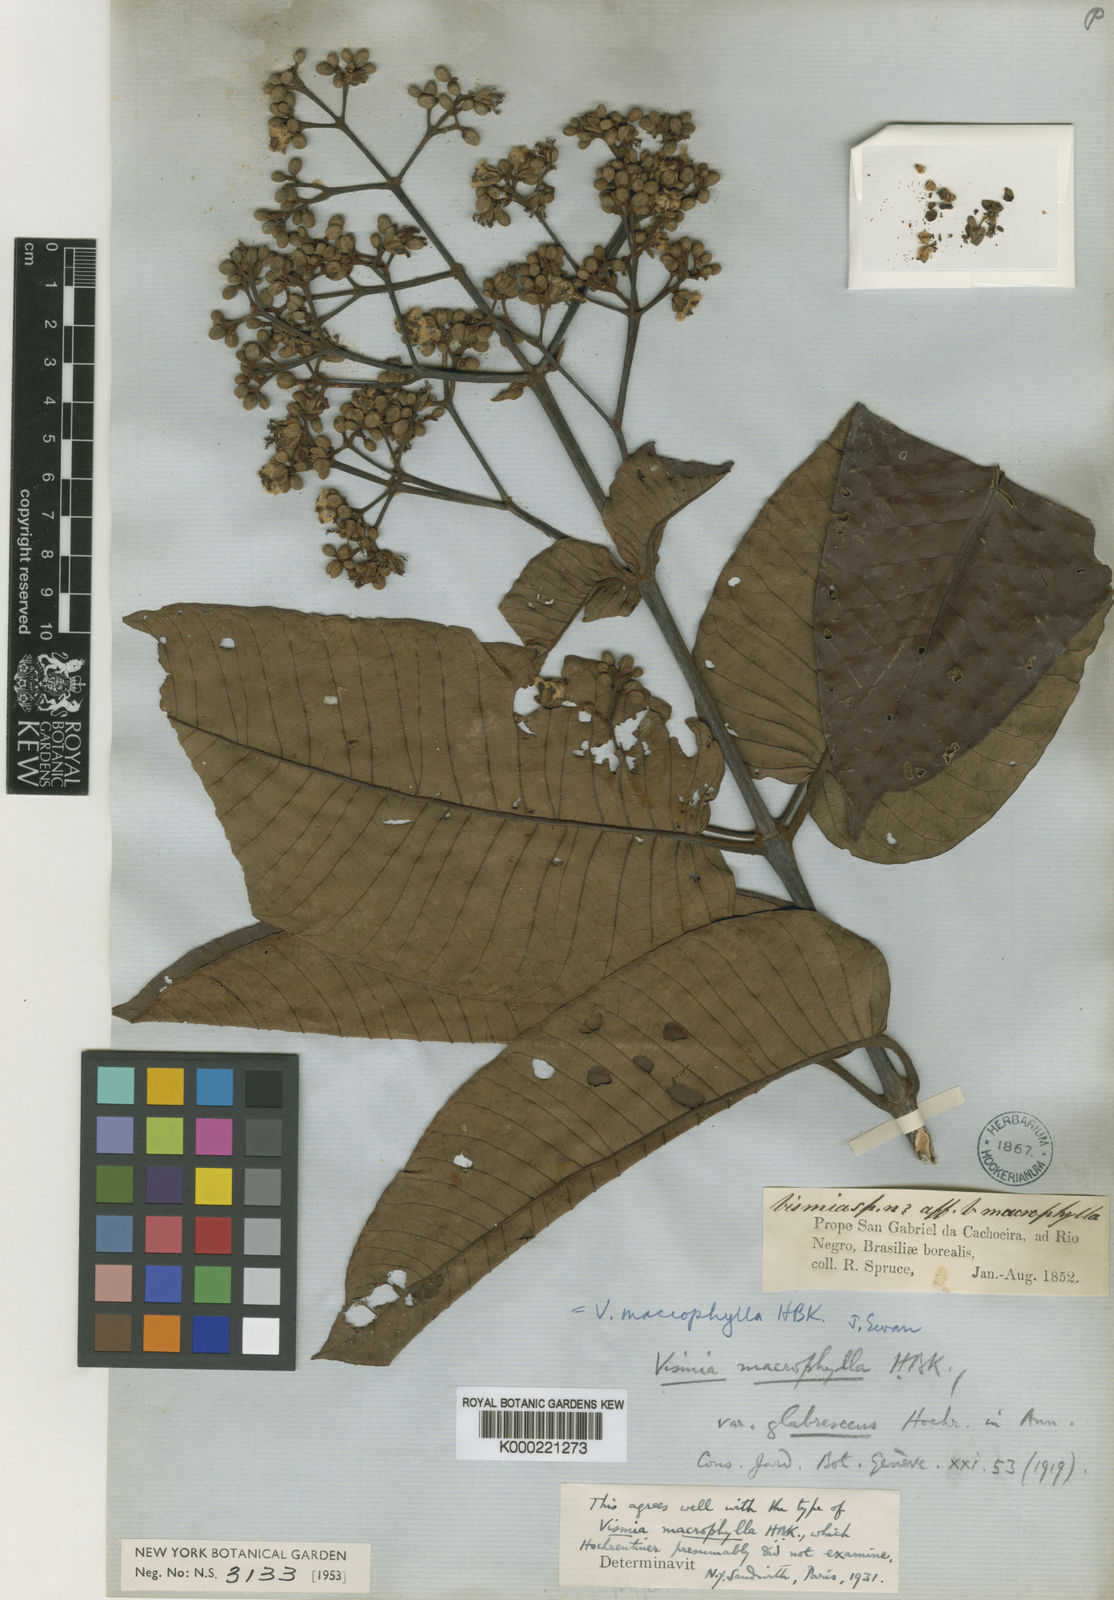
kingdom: Plantae
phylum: Tracheophyta
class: Magnoliopsida
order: Malpighiales
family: Hypericaceae
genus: Vismia
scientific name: Vismia macrophylla
